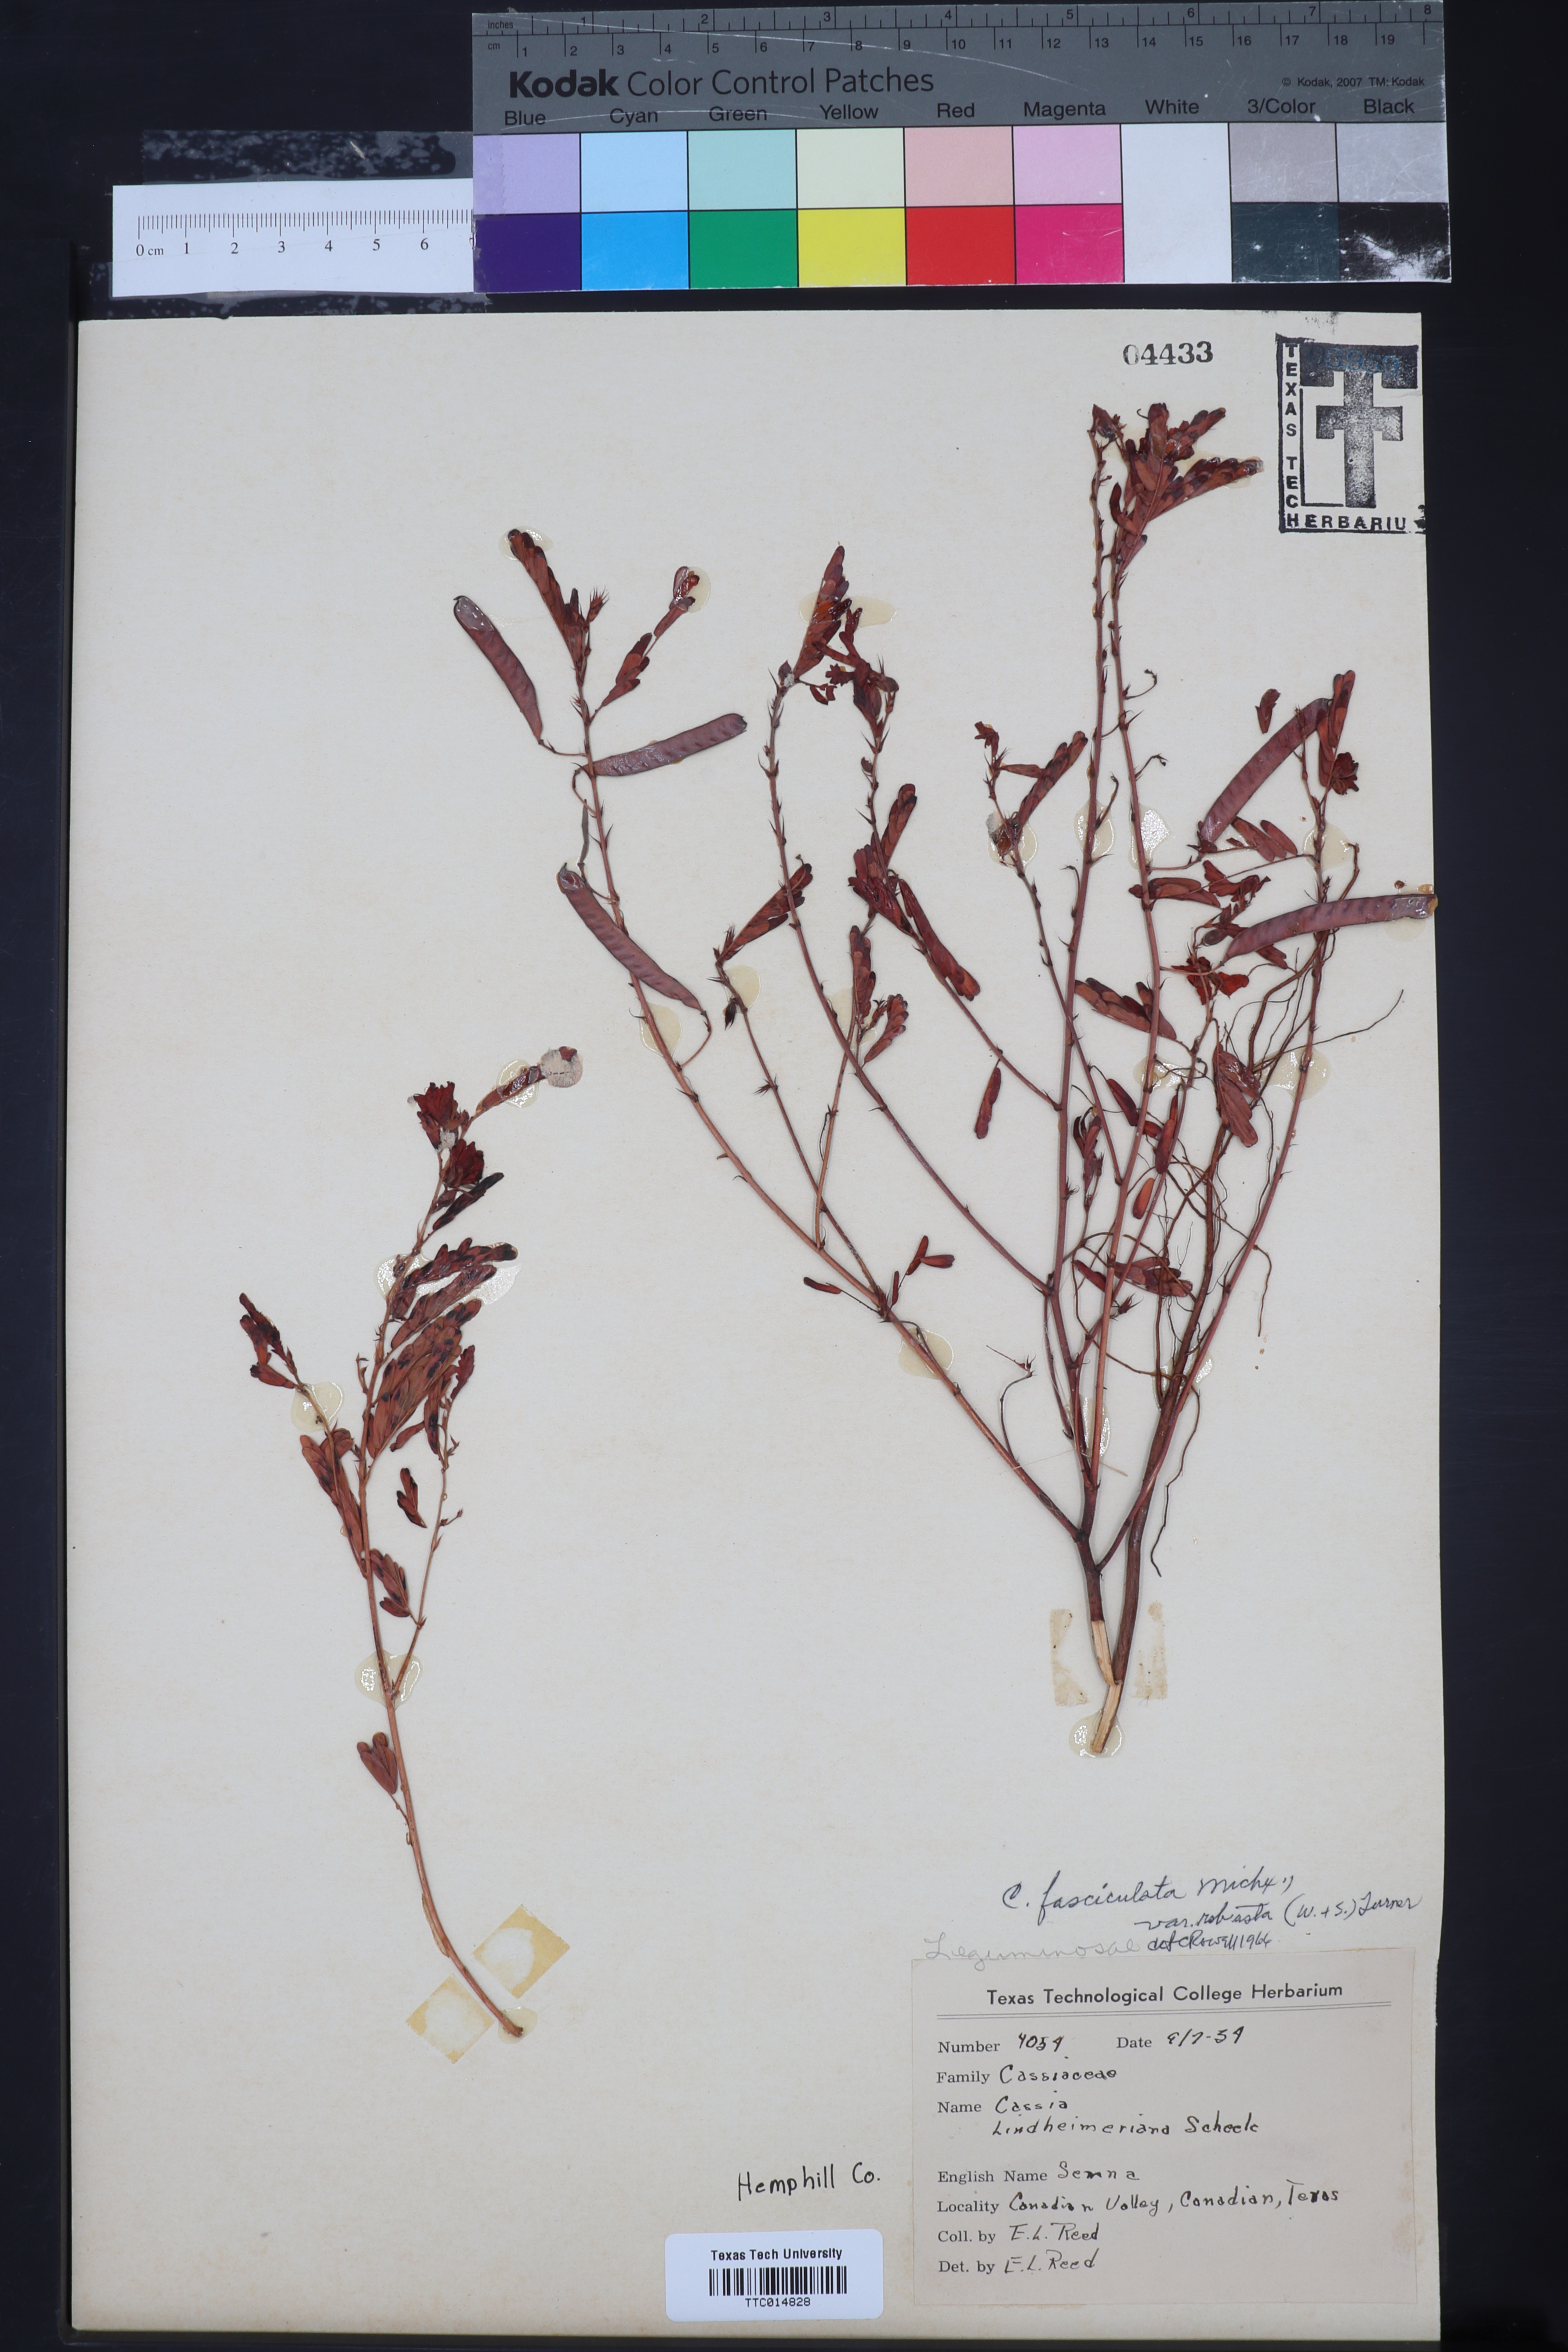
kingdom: Plantae
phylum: Tracheophyta
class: Magnoliopsida
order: Fabales
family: Fabaceae
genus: Chamaecrista
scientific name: Chamaecrista fasciculata
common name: Golden cassia
